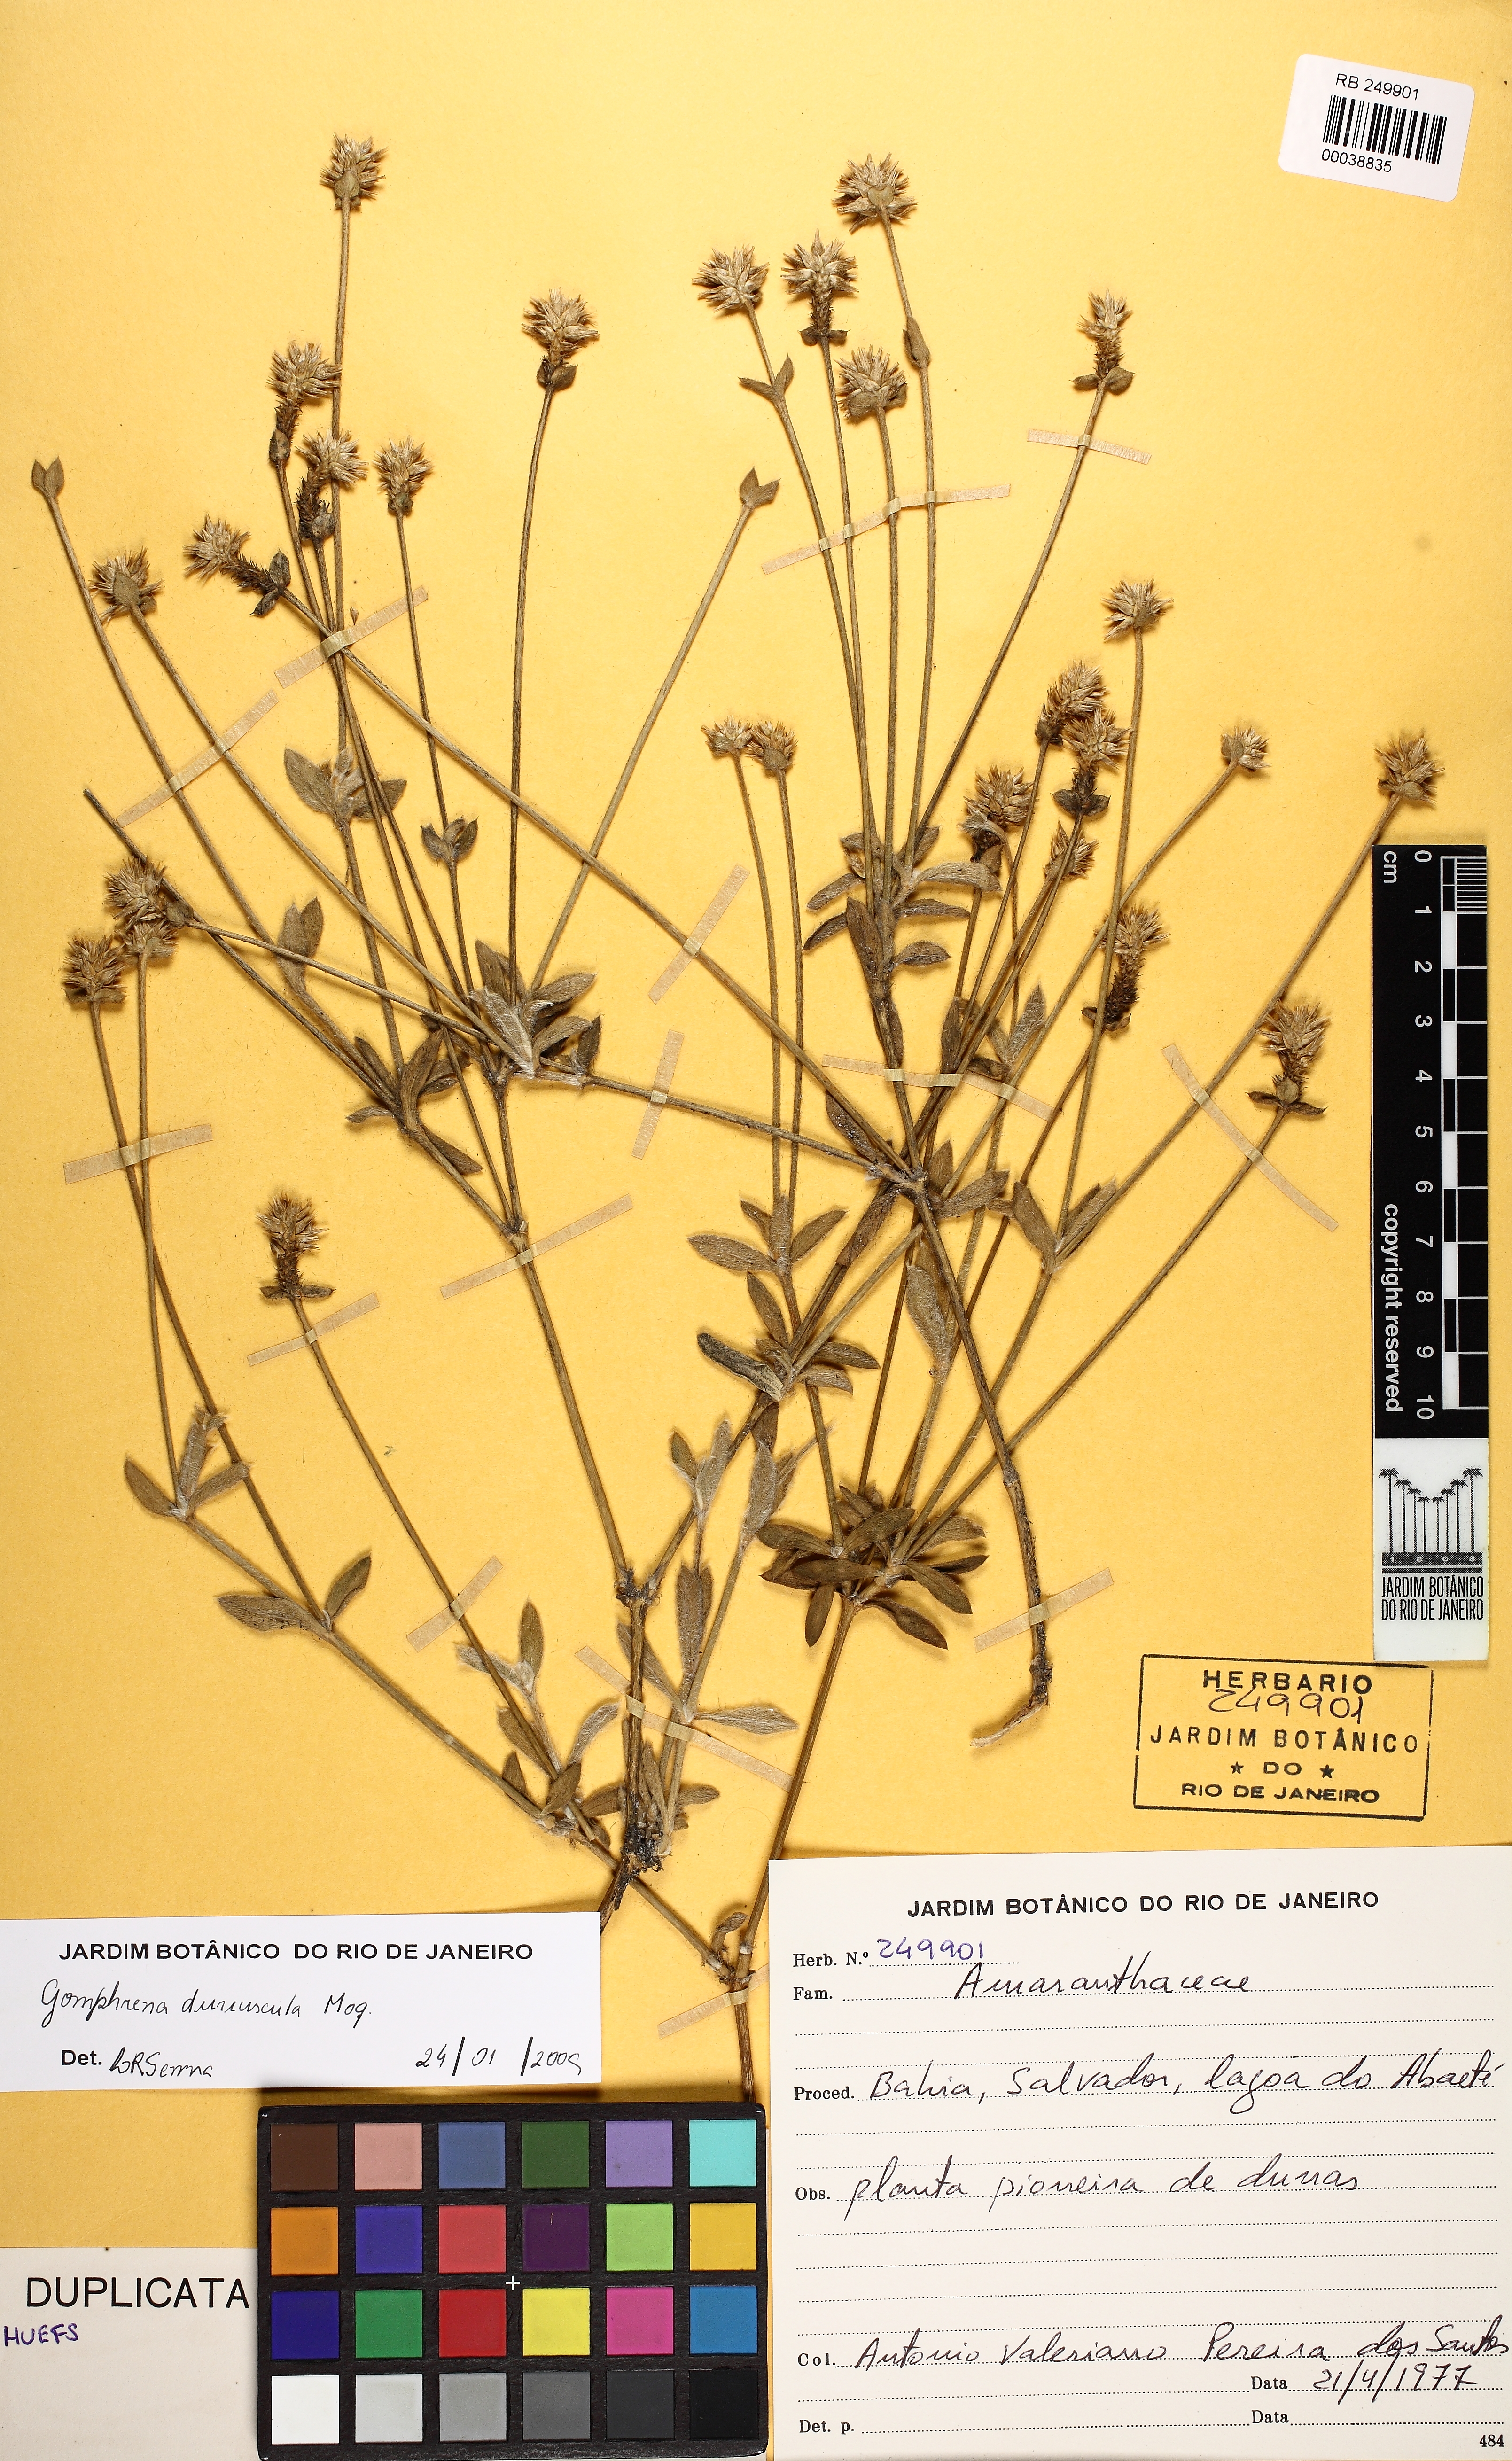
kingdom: Plantae
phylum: Tracheophyta
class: Magnoliopsida
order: Caryophyllales
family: Amaranthaceae
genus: Gomphrena
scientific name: Gomphrena duriuscula
